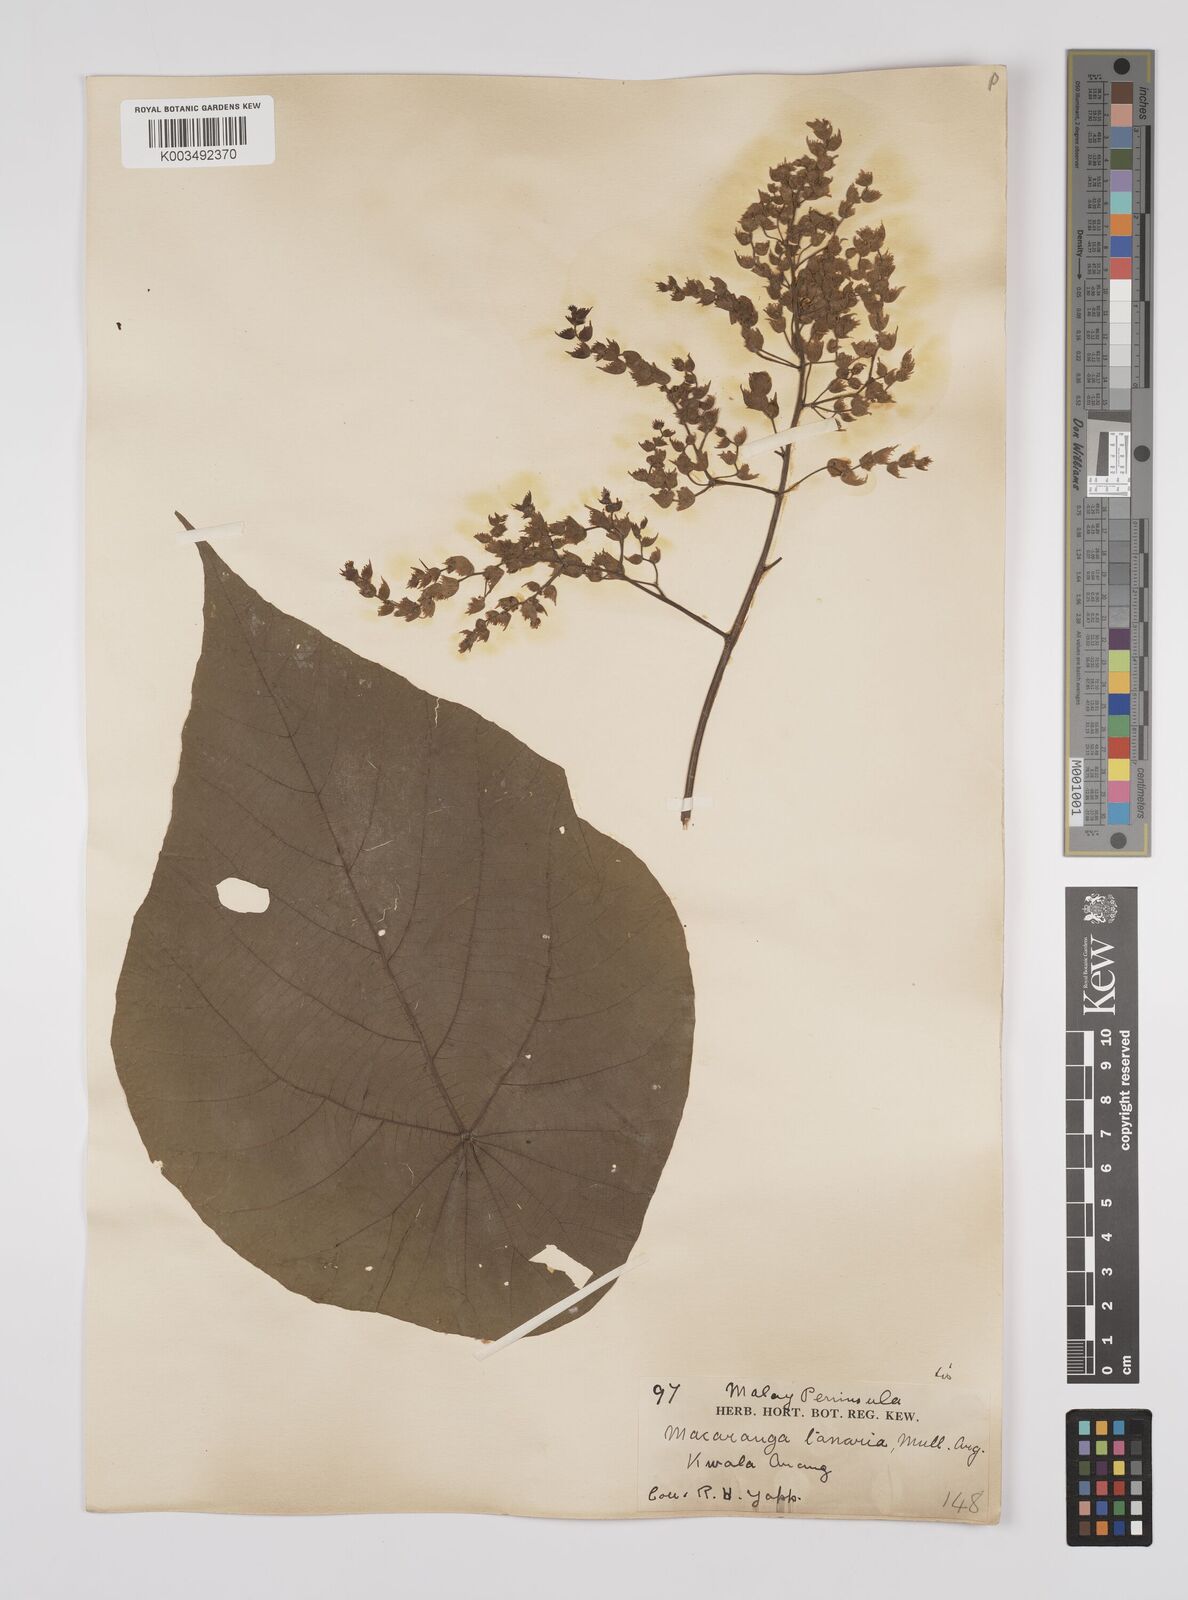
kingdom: Plantae
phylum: Tracheophyta
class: Magnoliopsida
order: Malpighiales
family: Euphorbiaceae
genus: Macaranga
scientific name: Macaranga tanarius
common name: Parasol leaf tree
